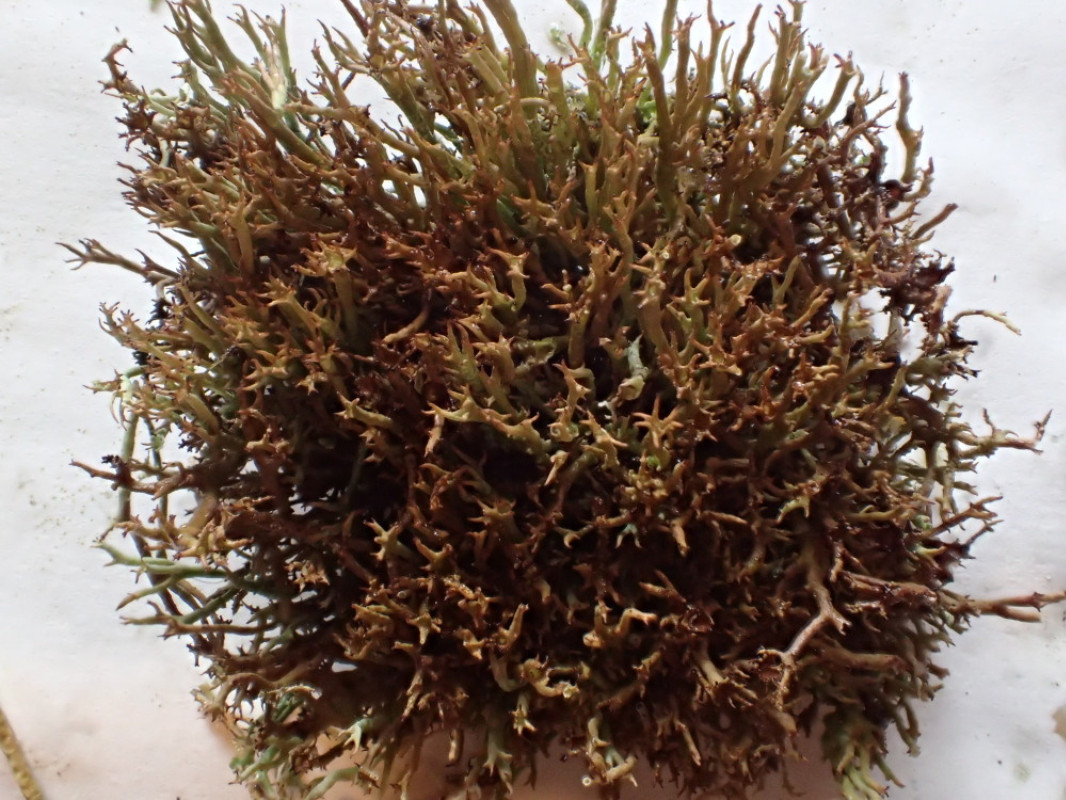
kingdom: Fungi
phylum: Ascomycota
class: Lecanoromycetes
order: Lecanorales
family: Cladoniaceae
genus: Cladonia
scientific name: Cladonia crispata
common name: takket bægerlav
